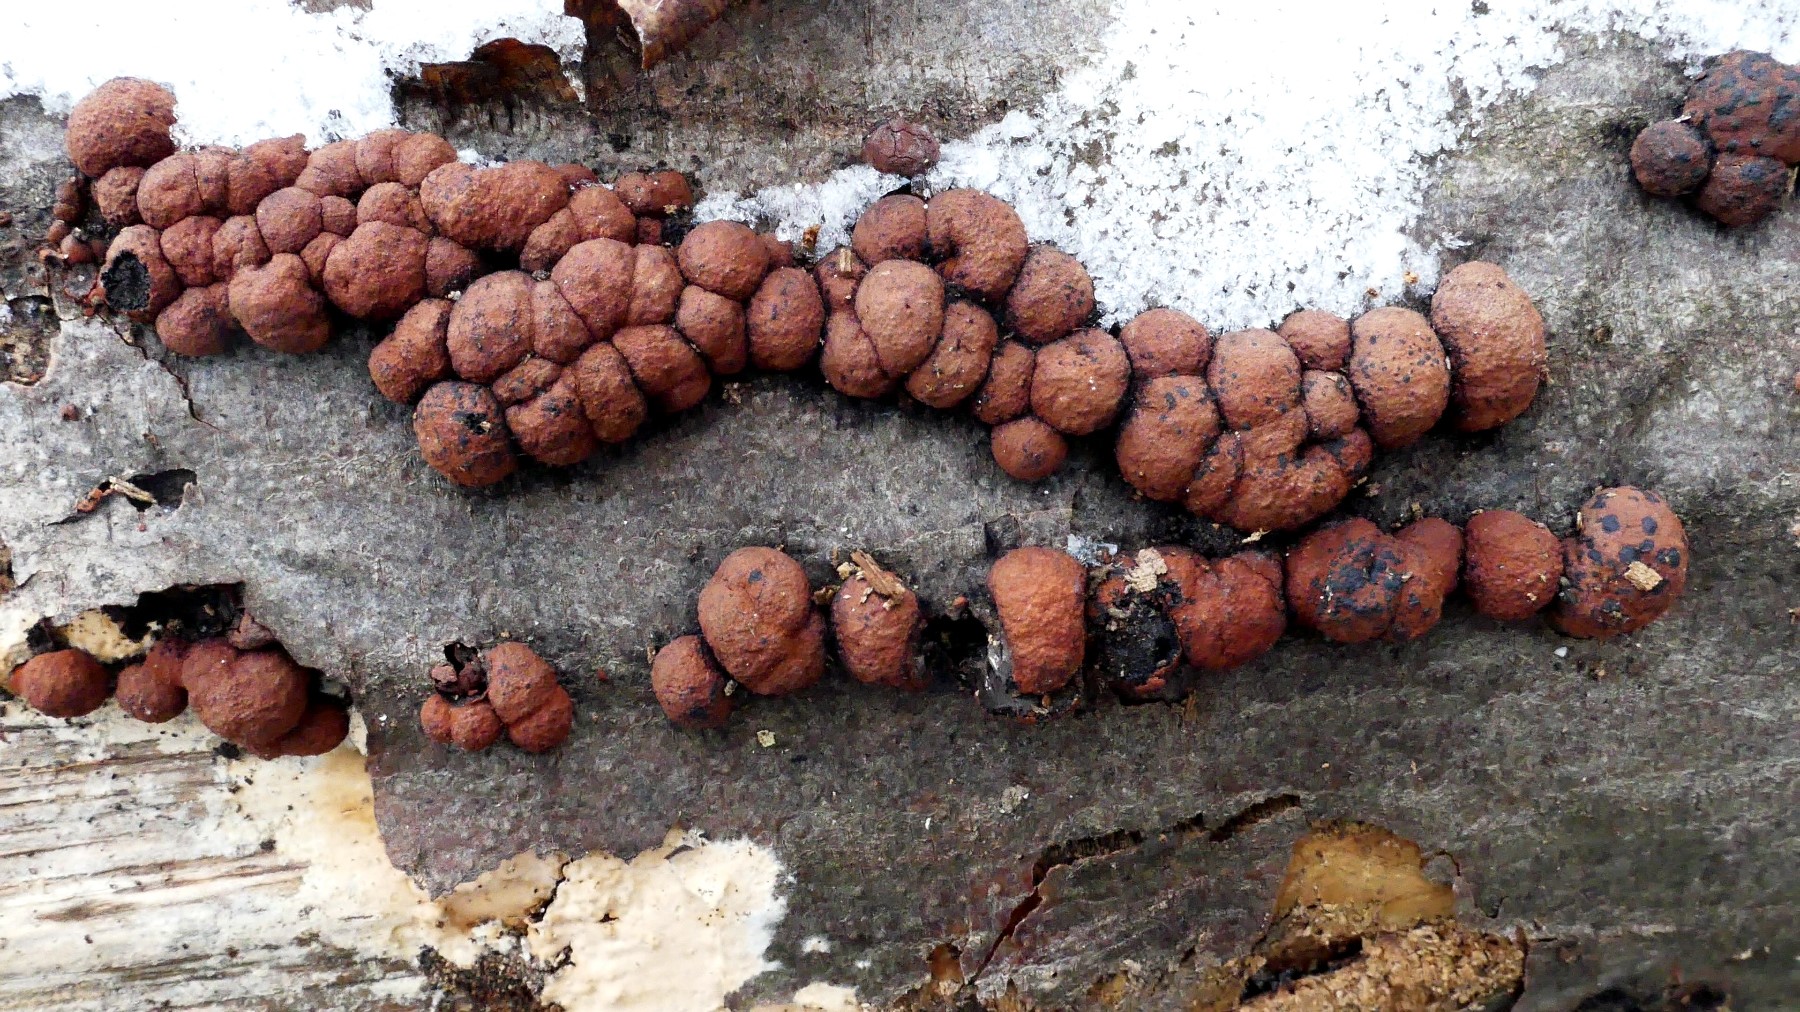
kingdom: Fungi
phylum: Ascomycota
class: Sordariomycetes
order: Xylariales
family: Hypoxylaceae
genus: Hypoxylon
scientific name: Hypoxylon fragiforme
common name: kuljordbær
